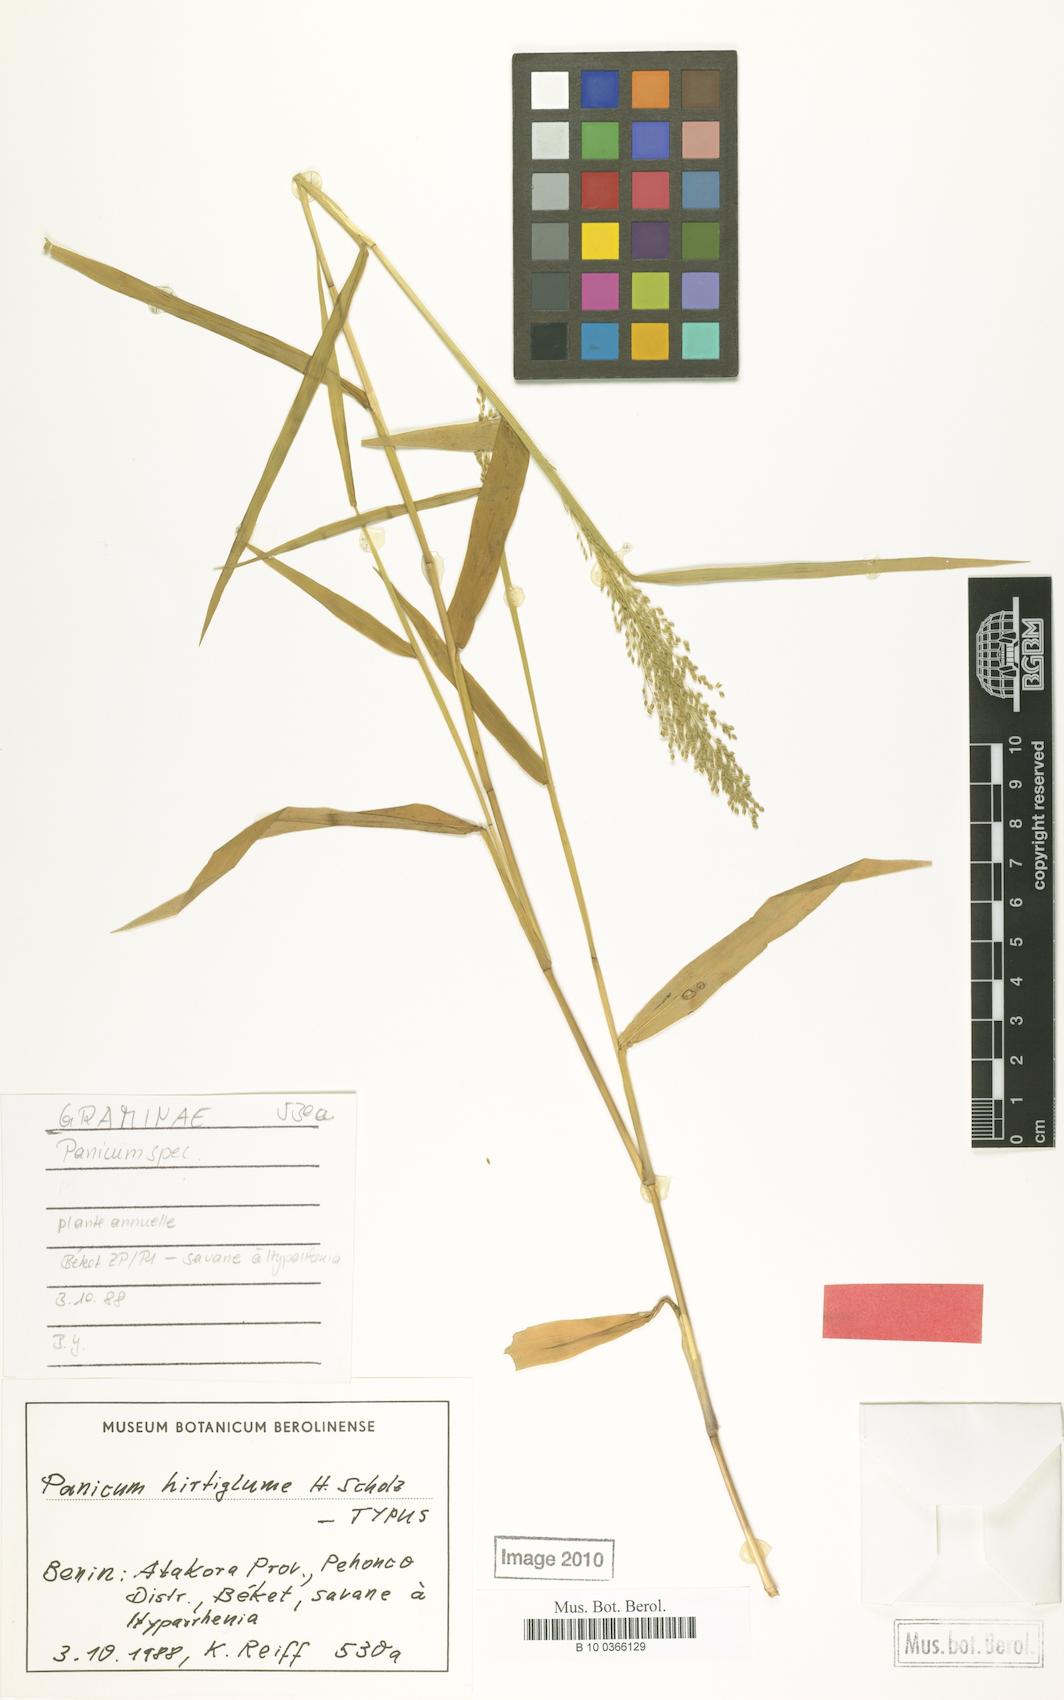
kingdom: Plantae
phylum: Tracheophyta
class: Liliopsida
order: Poales
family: Poaceae
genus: Panicum
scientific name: Panicum sublaetum
